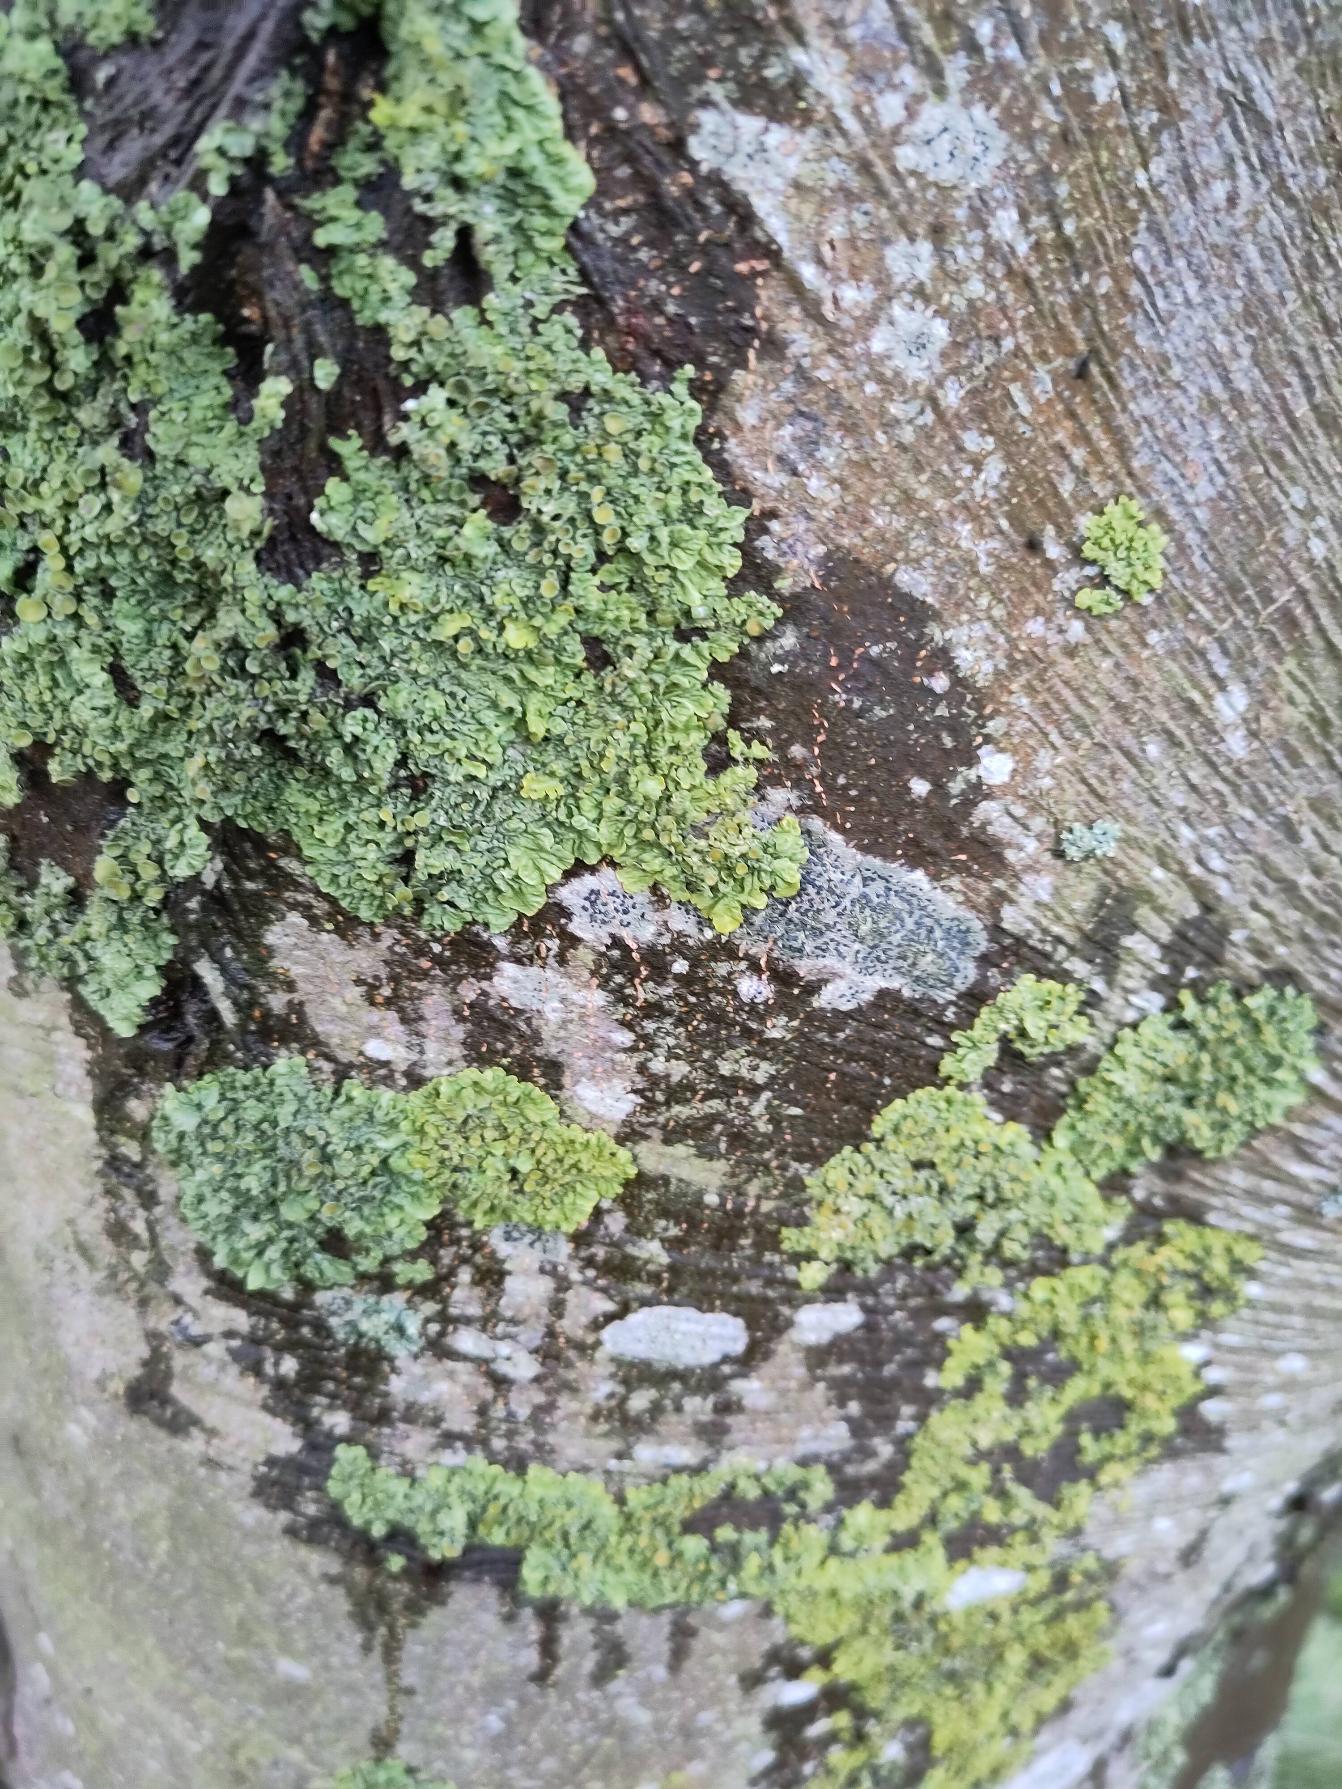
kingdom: Fungi
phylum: Ascomycota
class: Lecanoromycetes
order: Teloschistales
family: Teloschistaceae
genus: Xanthoria
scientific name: Xanthoria parietina
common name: Almindelig væggelav
